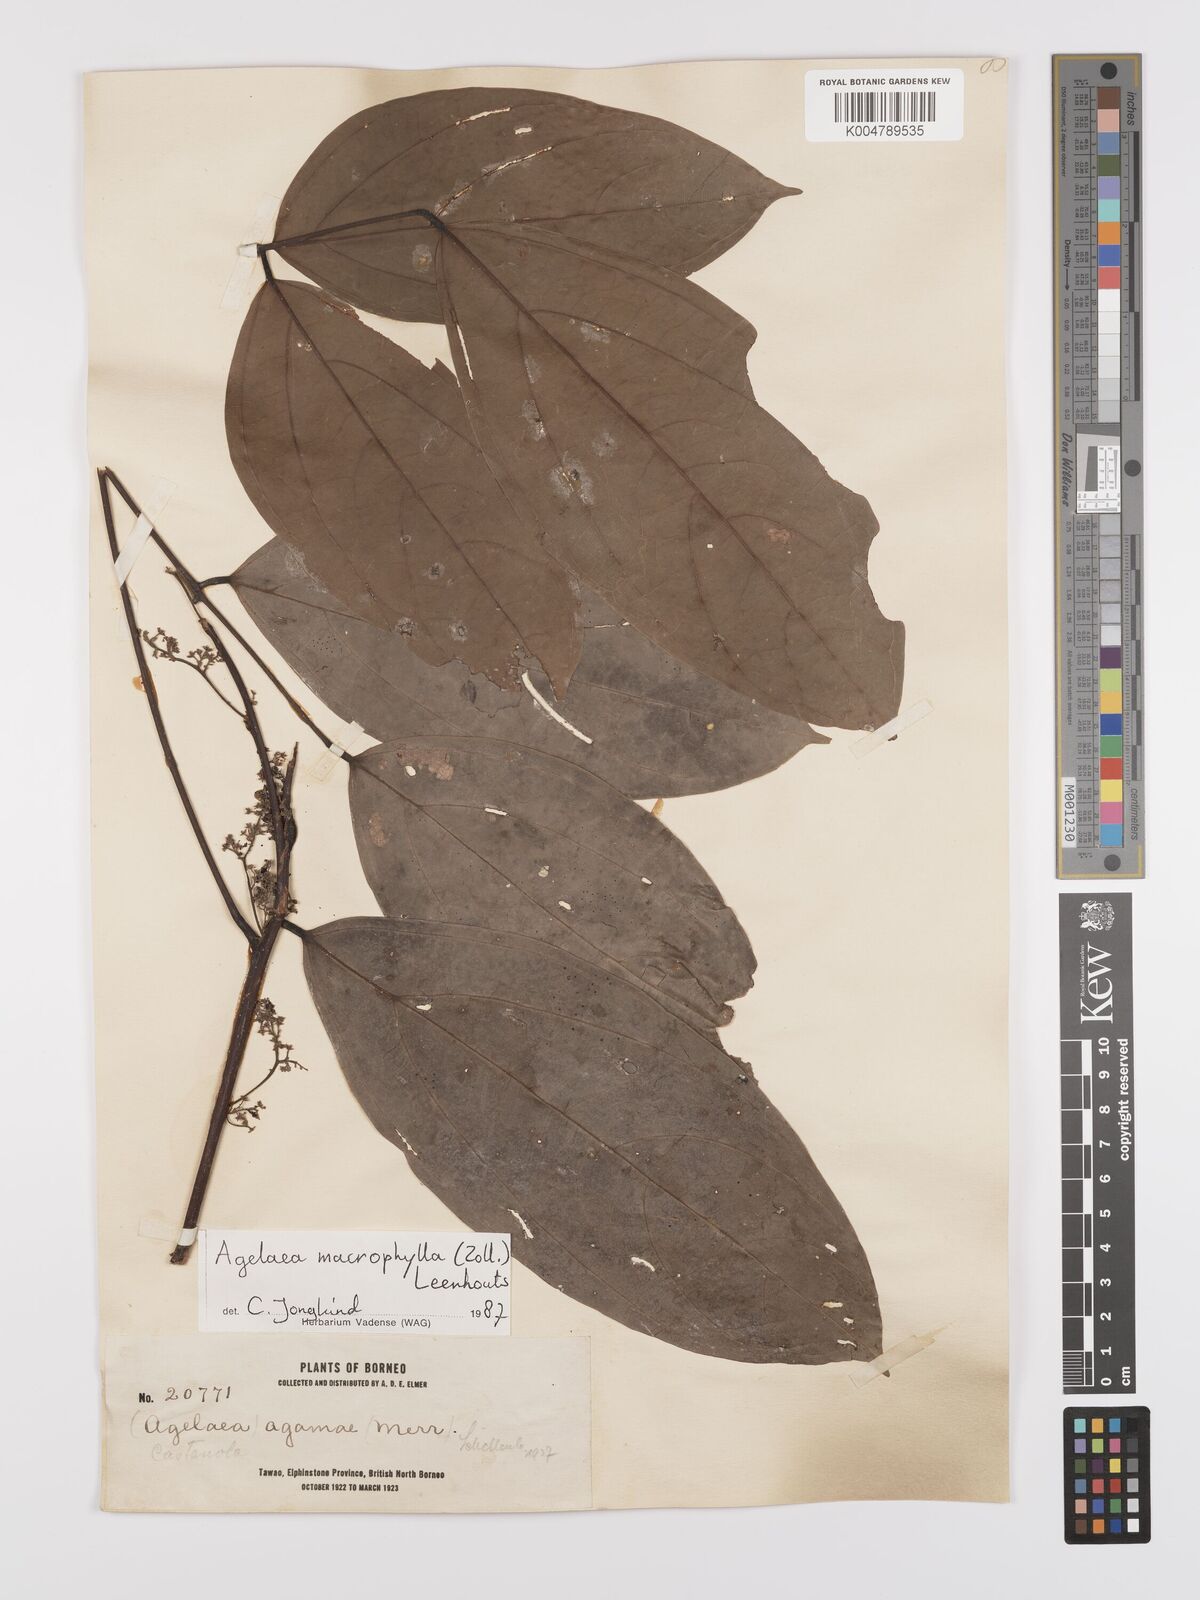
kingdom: Plantae
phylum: Tracheophyta
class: Magnoliopsida
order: Oxalidales
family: Connaraceae
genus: Agelaea
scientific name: Agelaea trinervis
